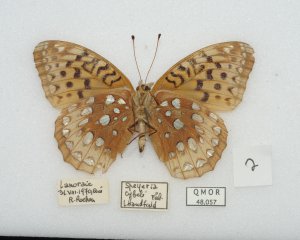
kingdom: Animalia
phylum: Arthropoda
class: Insecta
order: Lepidoptera
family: Nymphalidae
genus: Speyeria
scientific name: Speyeria cybele
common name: Great Spangled Fritillary
